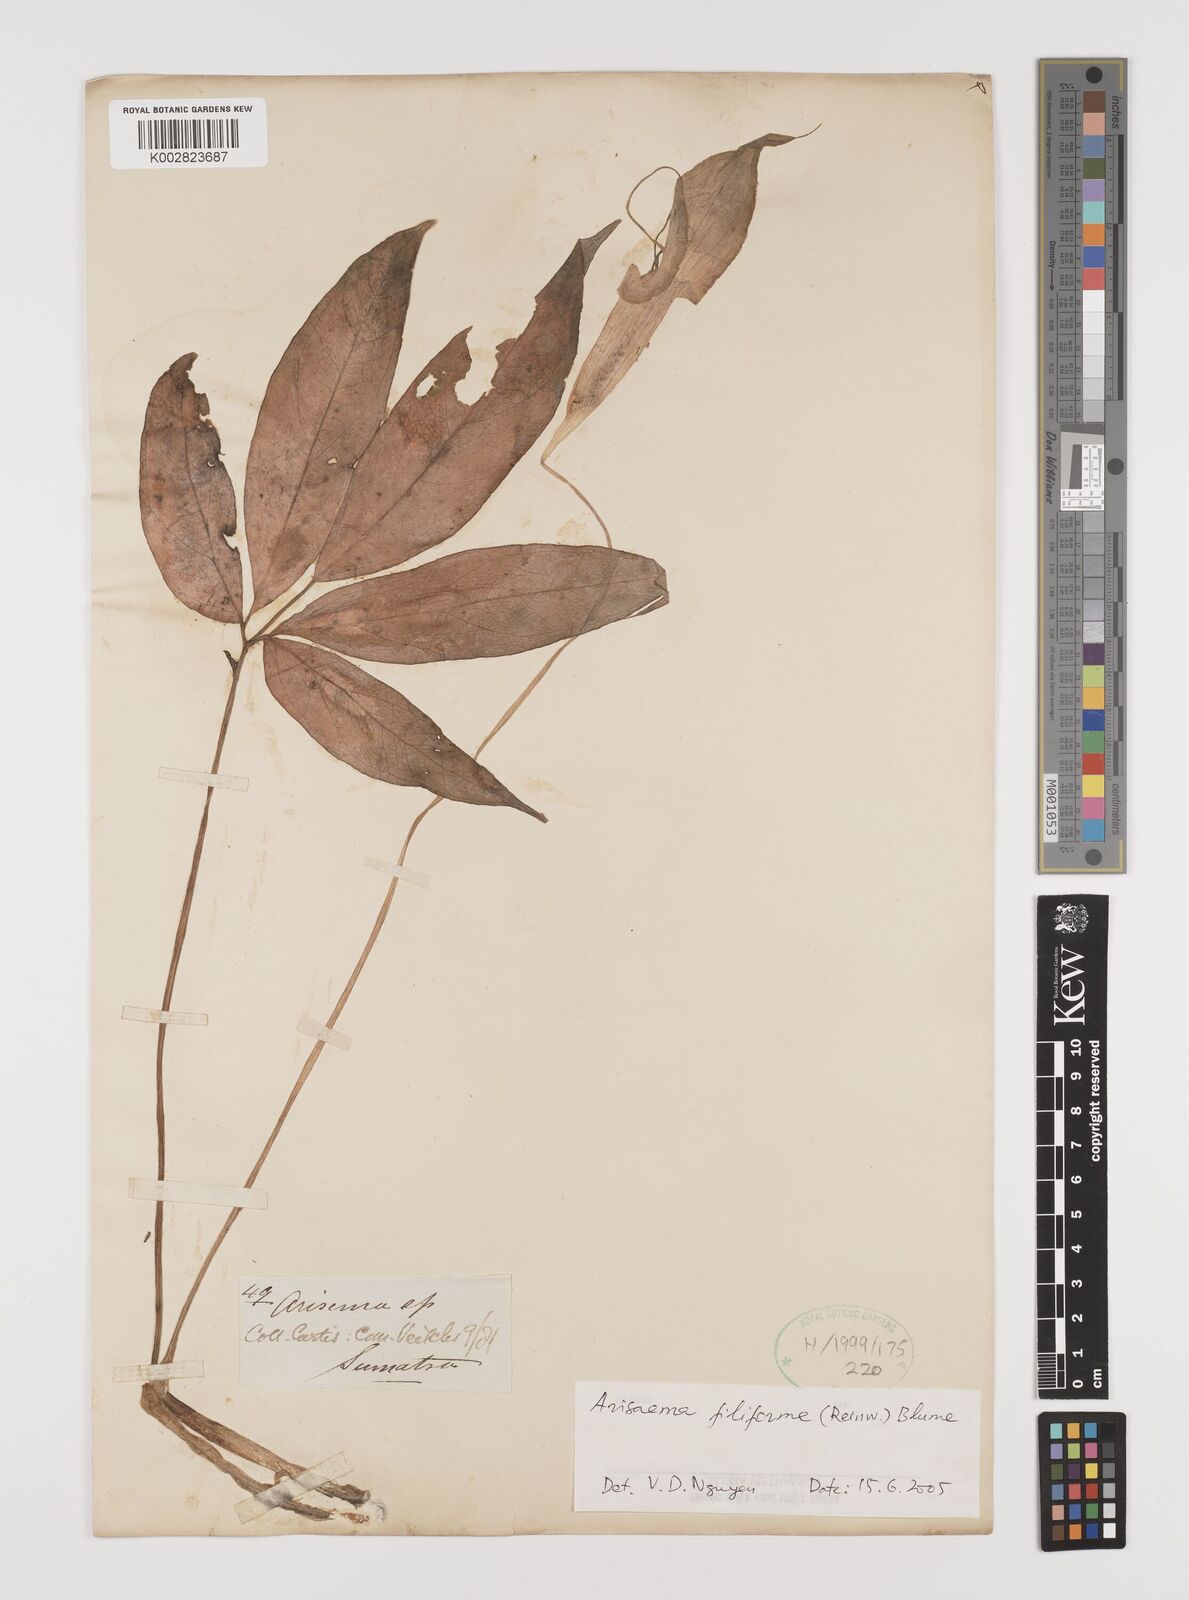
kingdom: Plantae
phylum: Tracheophyta
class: Liliopsida
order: Alismatales
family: Araceae
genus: Arisaema
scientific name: Arisaema filiforme
